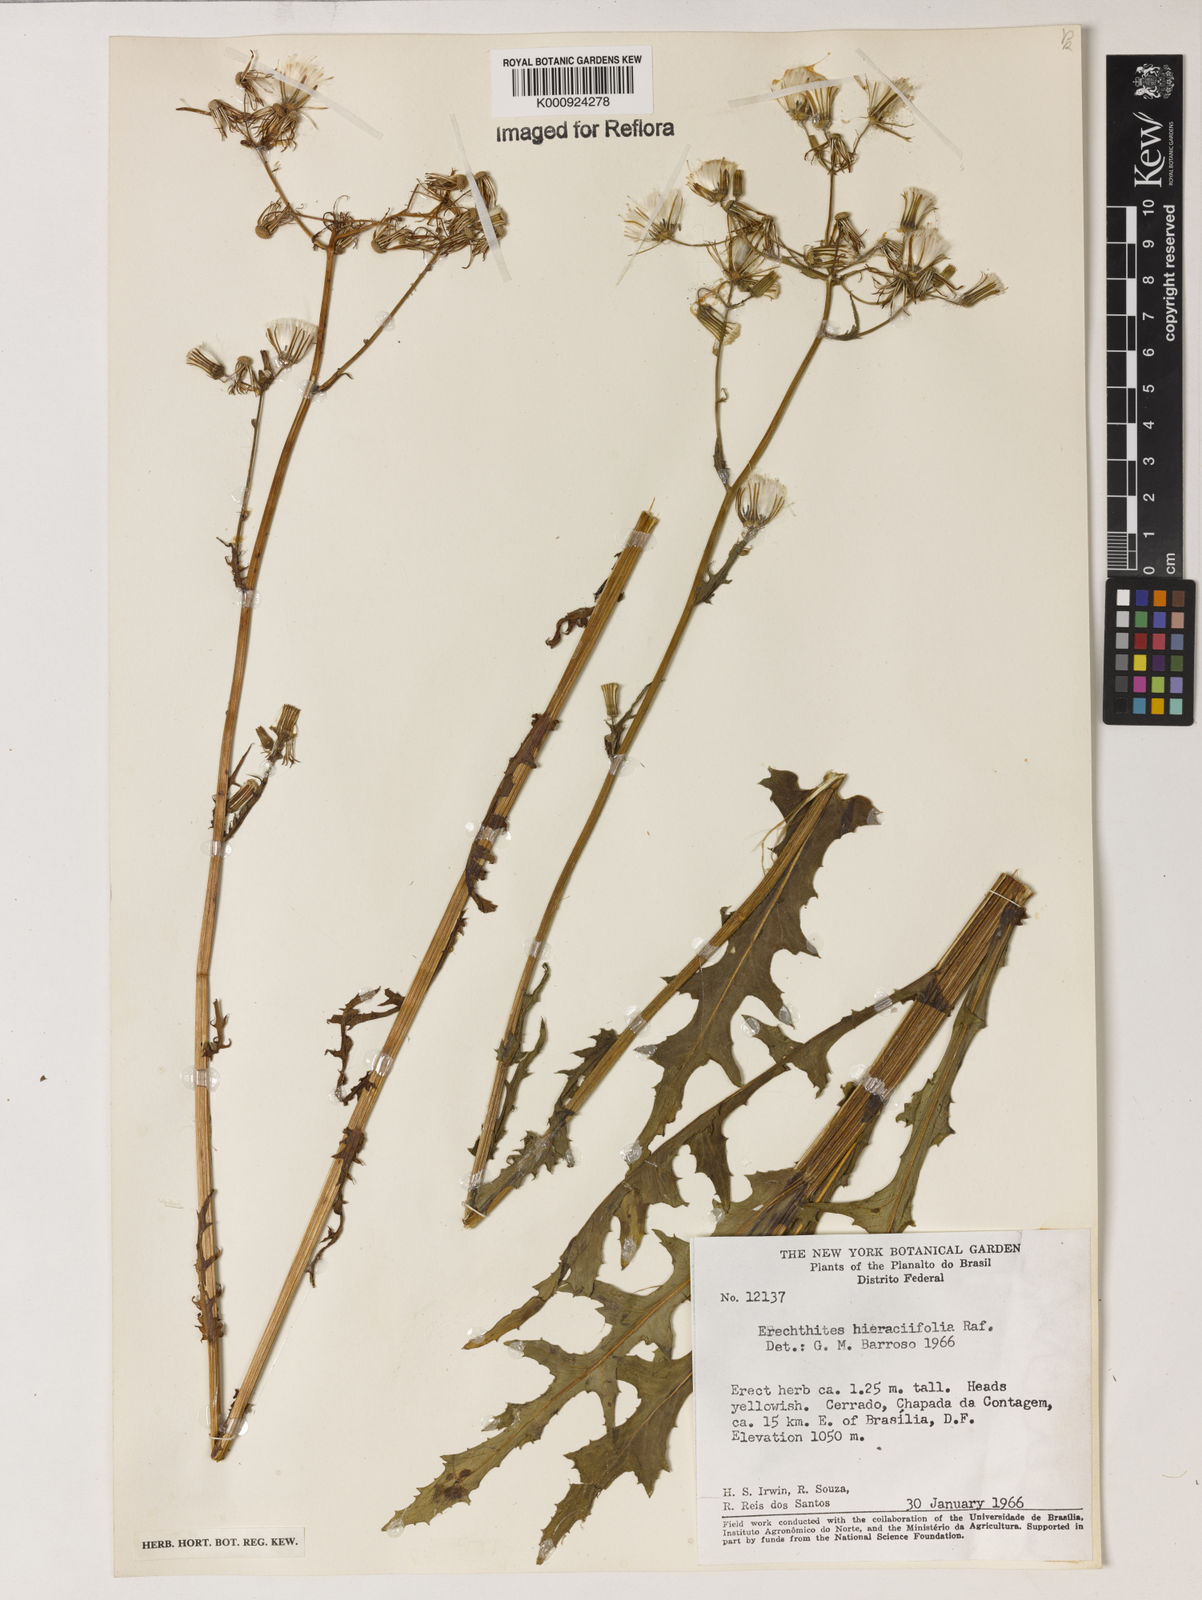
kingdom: Plantae
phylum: Tracheophyta
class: Magnoliopsida
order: Asterales
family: Asteraceae
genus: Erechtites
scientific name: Erechtites hieraciifolius
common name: American burnweed
